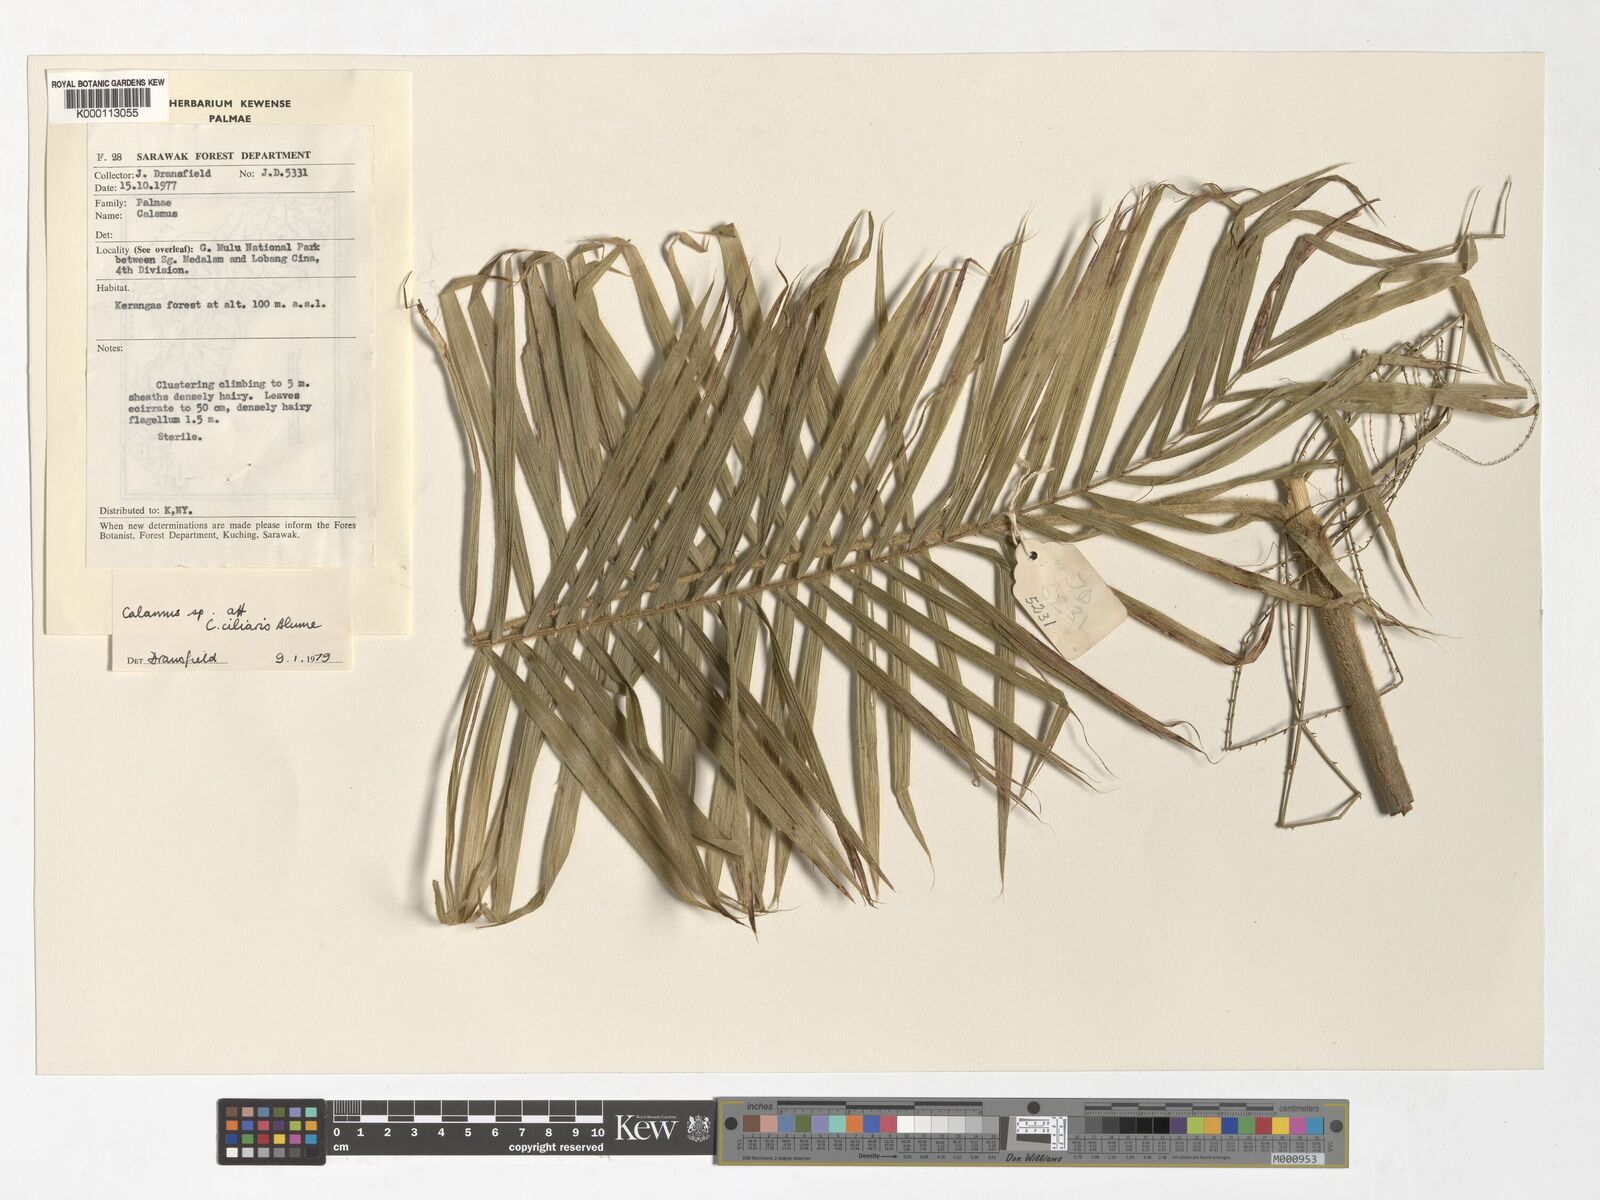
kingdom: Plantae
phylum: Tracheophyta
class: Liliopsida
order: Arecales
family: Arecaceae
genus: Calamus
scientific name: Calamus ciliaris
